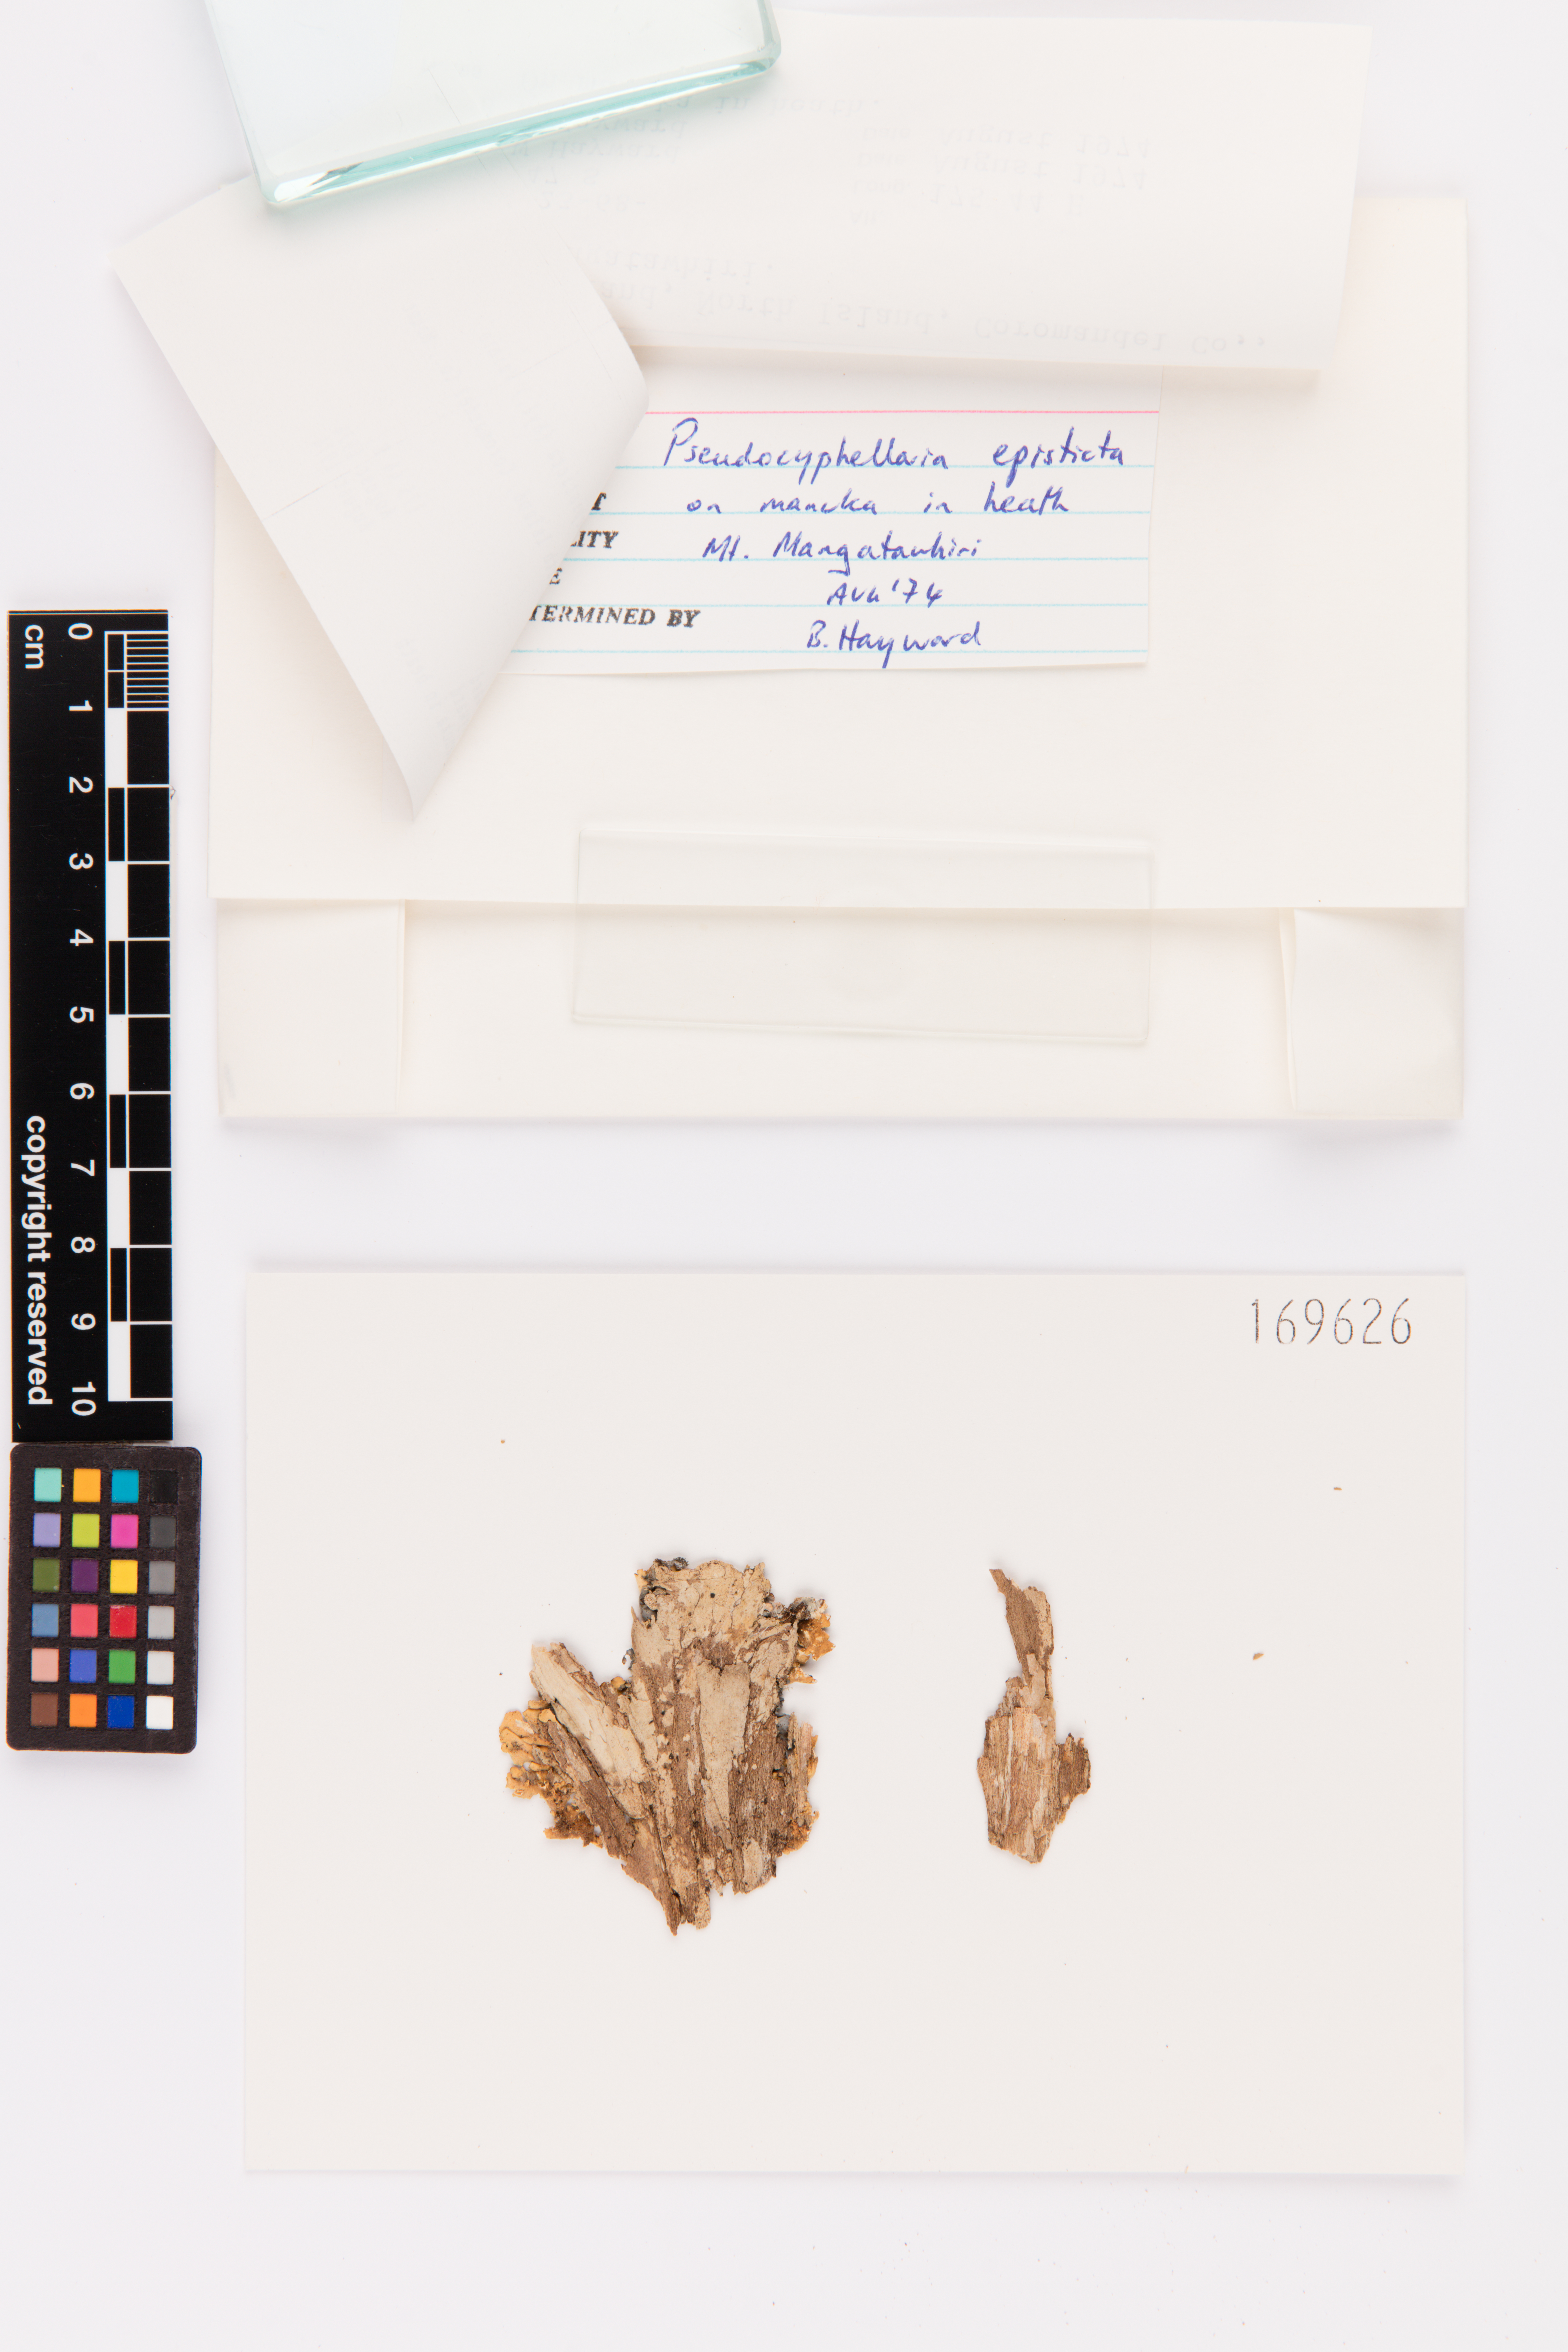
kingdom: Fungi
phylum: Ascomycota
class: Lecanoromycetes
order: Peltigerales
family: Lobariaceae
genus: Pseudocyphellaria
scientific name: Pseudocyphellaria episticta
